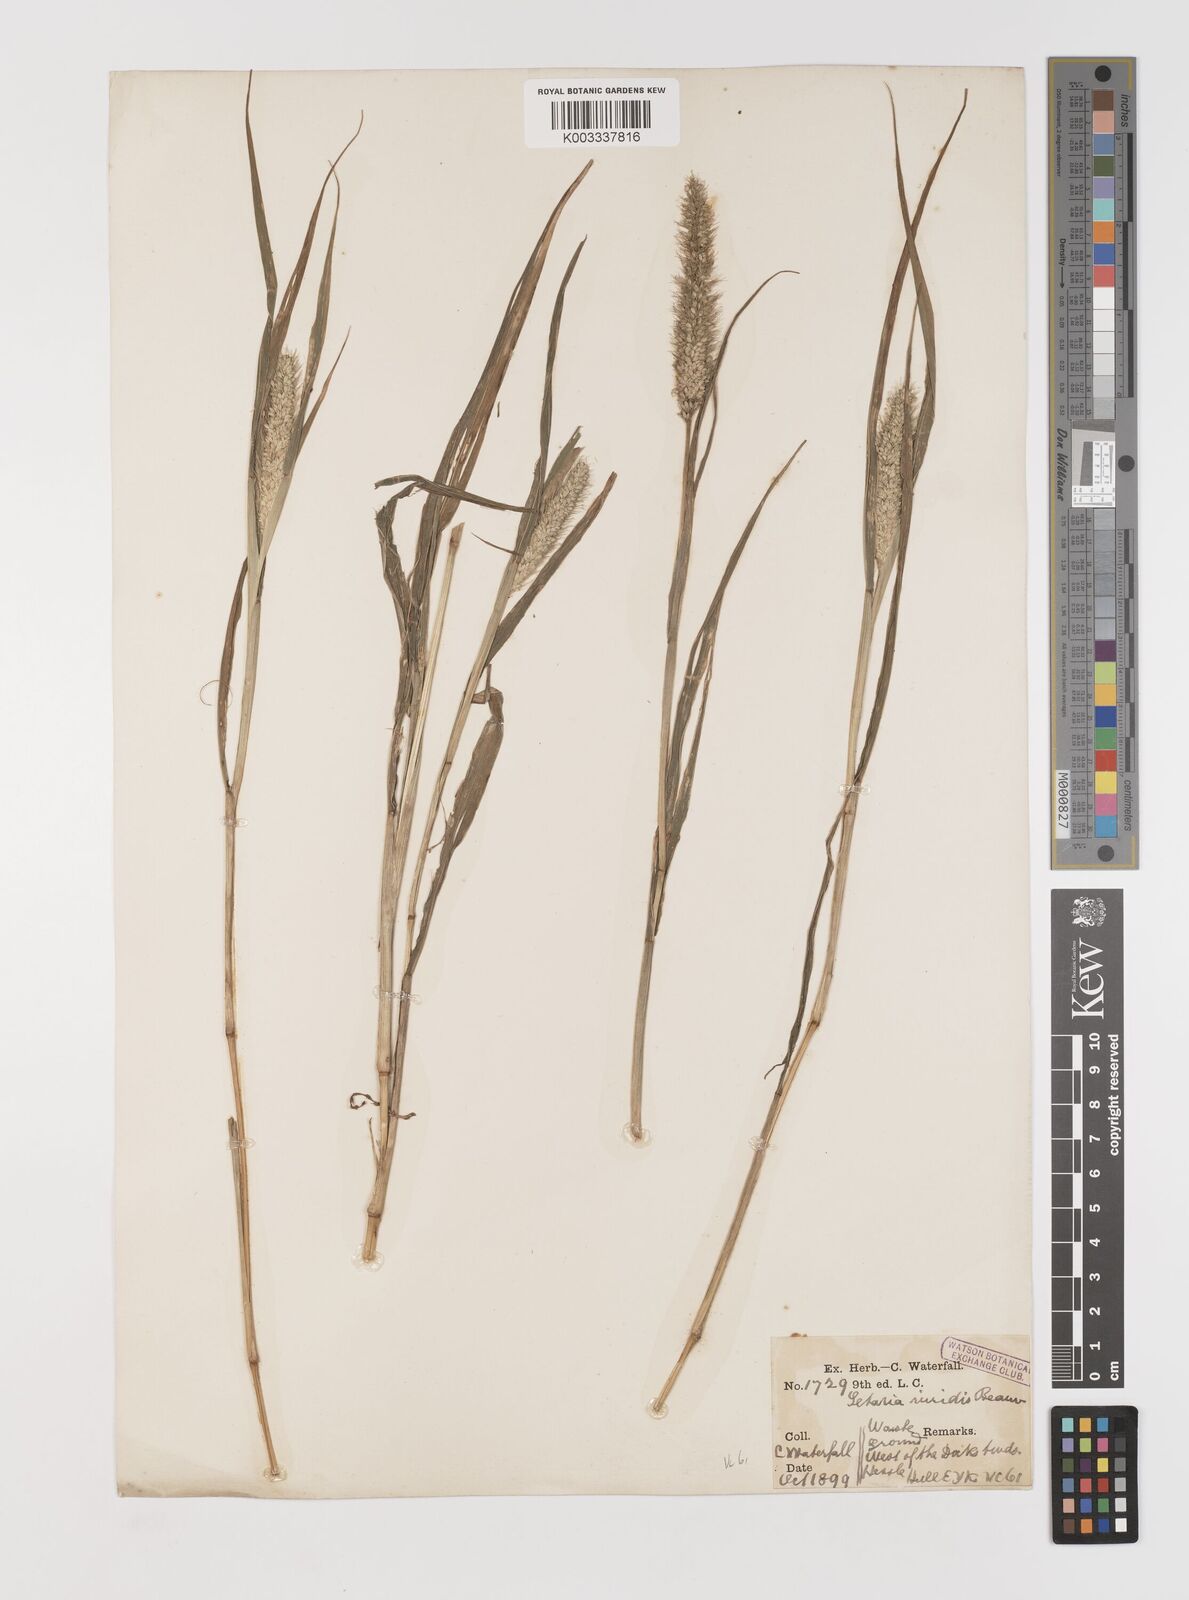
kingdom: Plantae
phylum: Tracheophyta
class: Liliopsida
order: Poales
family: Poaceae
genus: Setaria
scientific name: Setaria viridis
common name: Green bristlegrass
